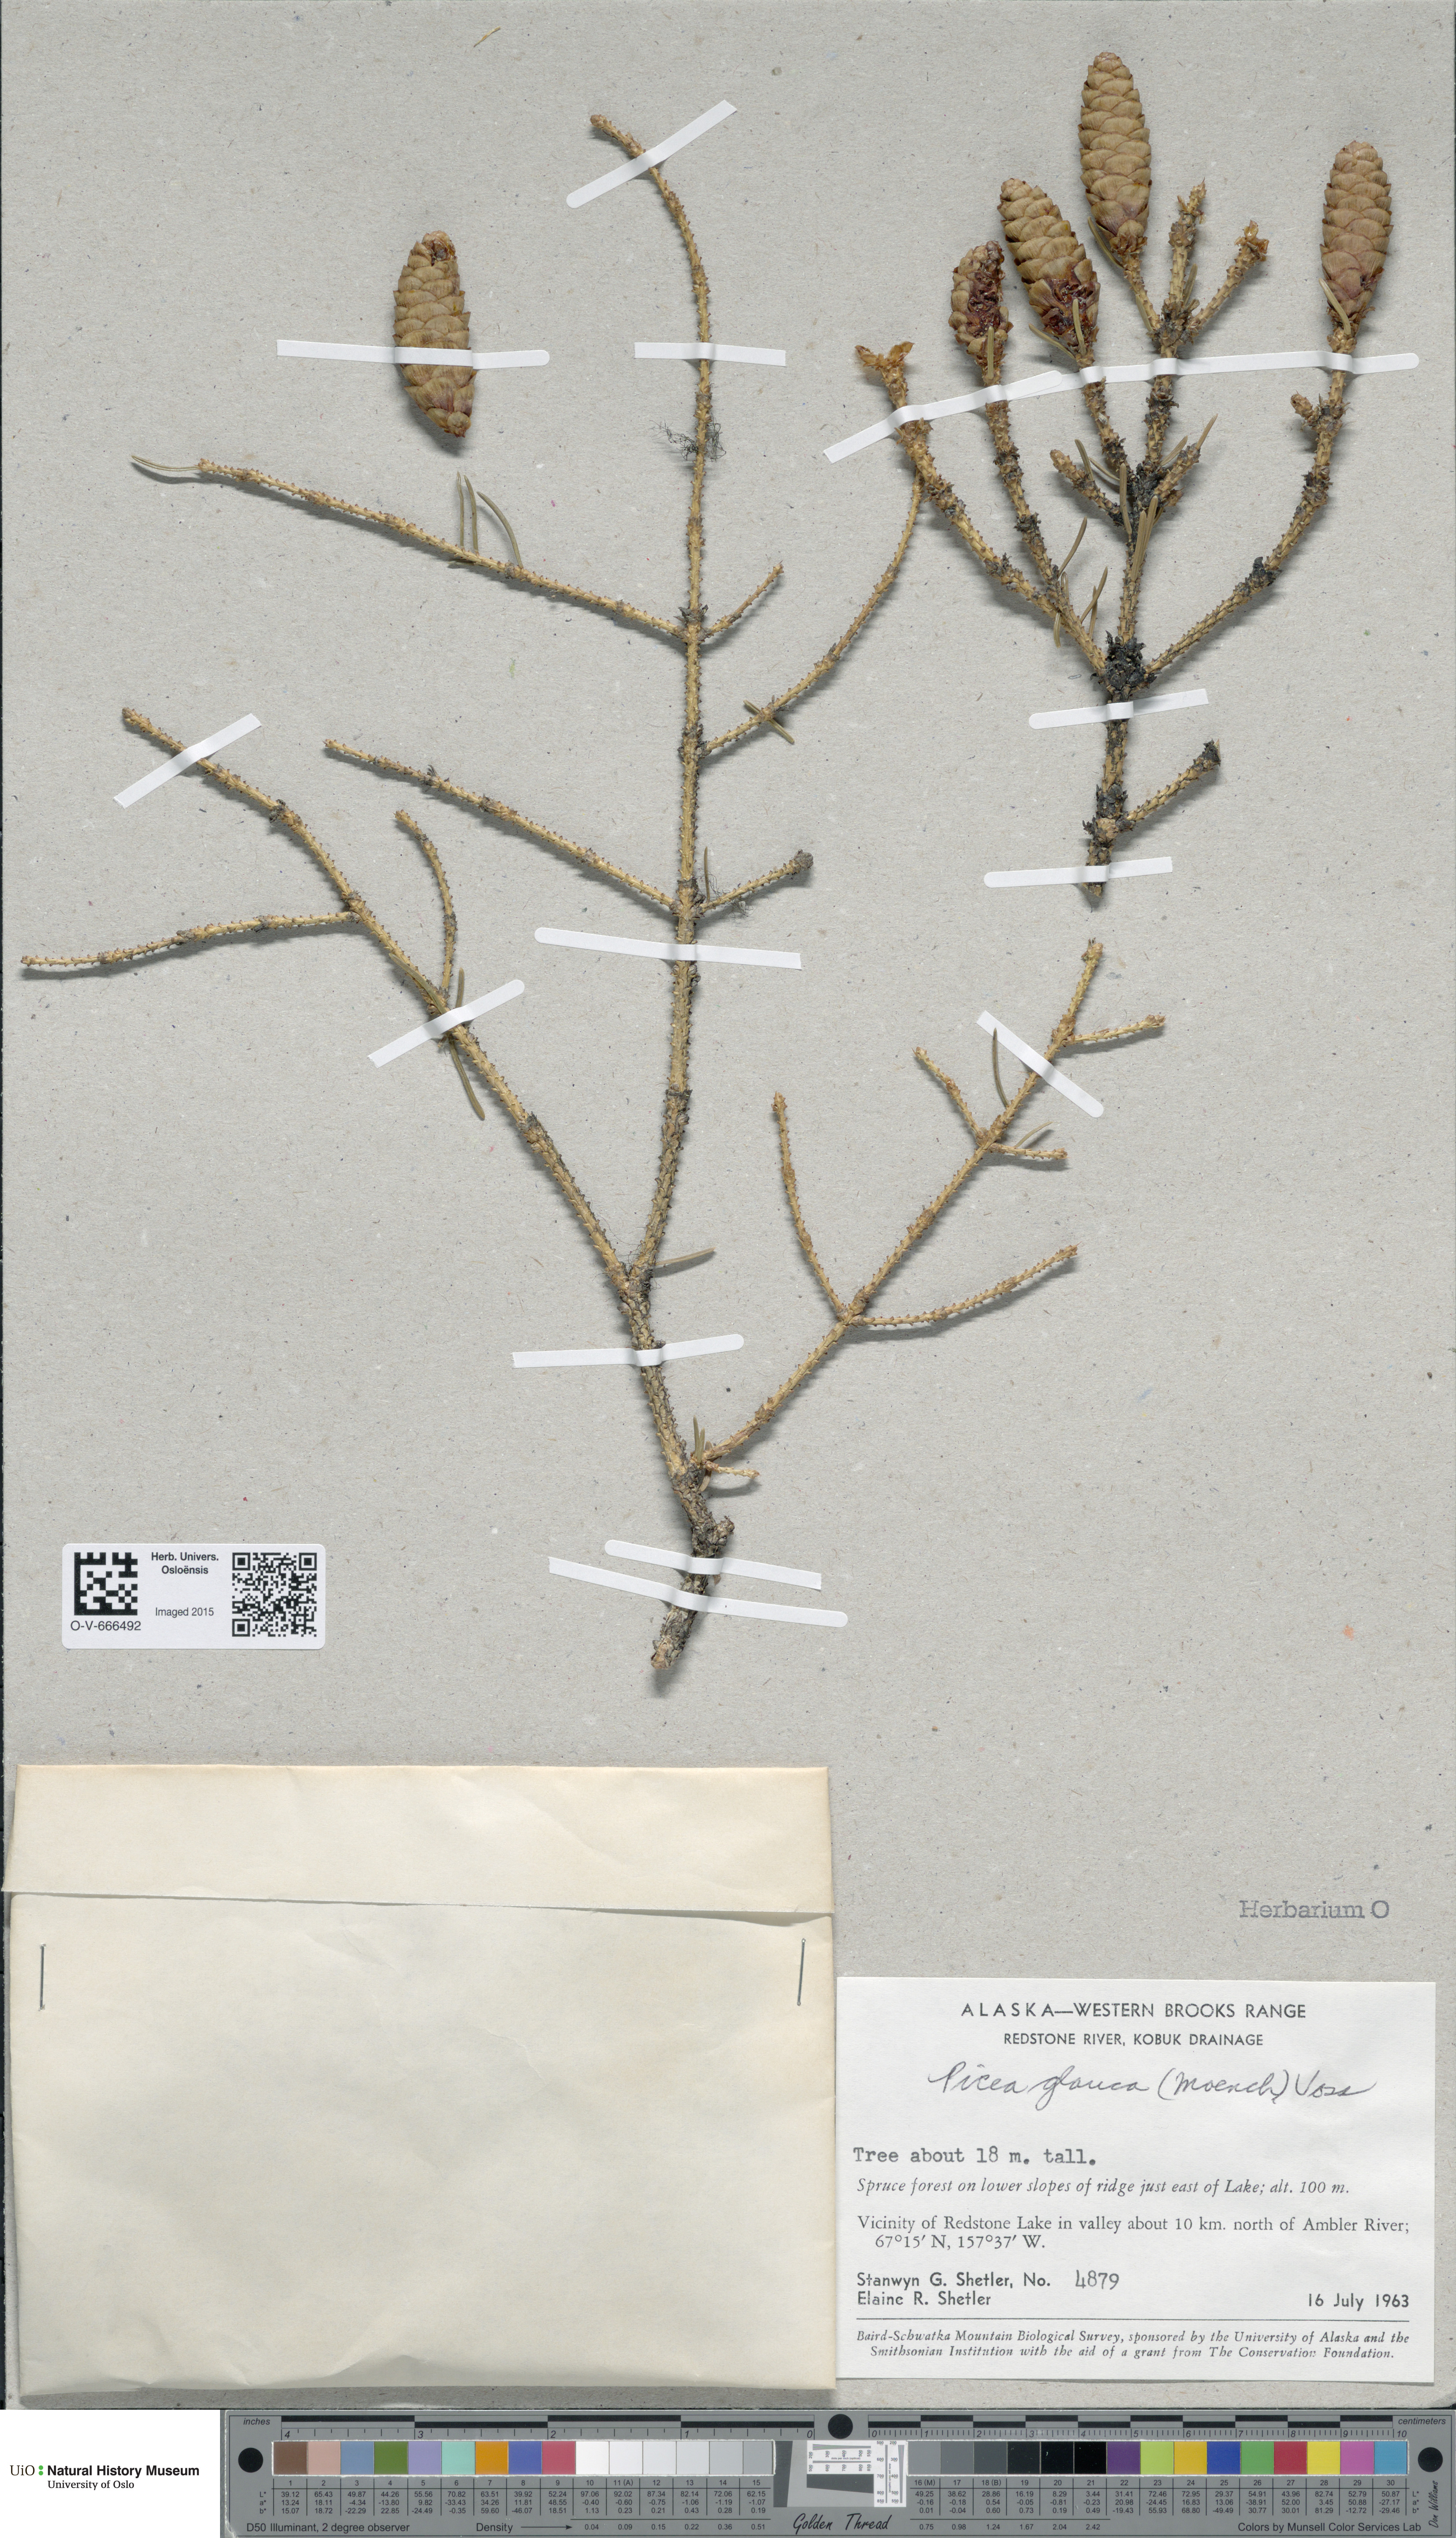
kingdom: Plantae
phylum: Tracheophyta
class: Pinopsida
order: Pinales
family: Pinaceae
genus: Picea
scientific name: Picea glauca
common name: White spruce
